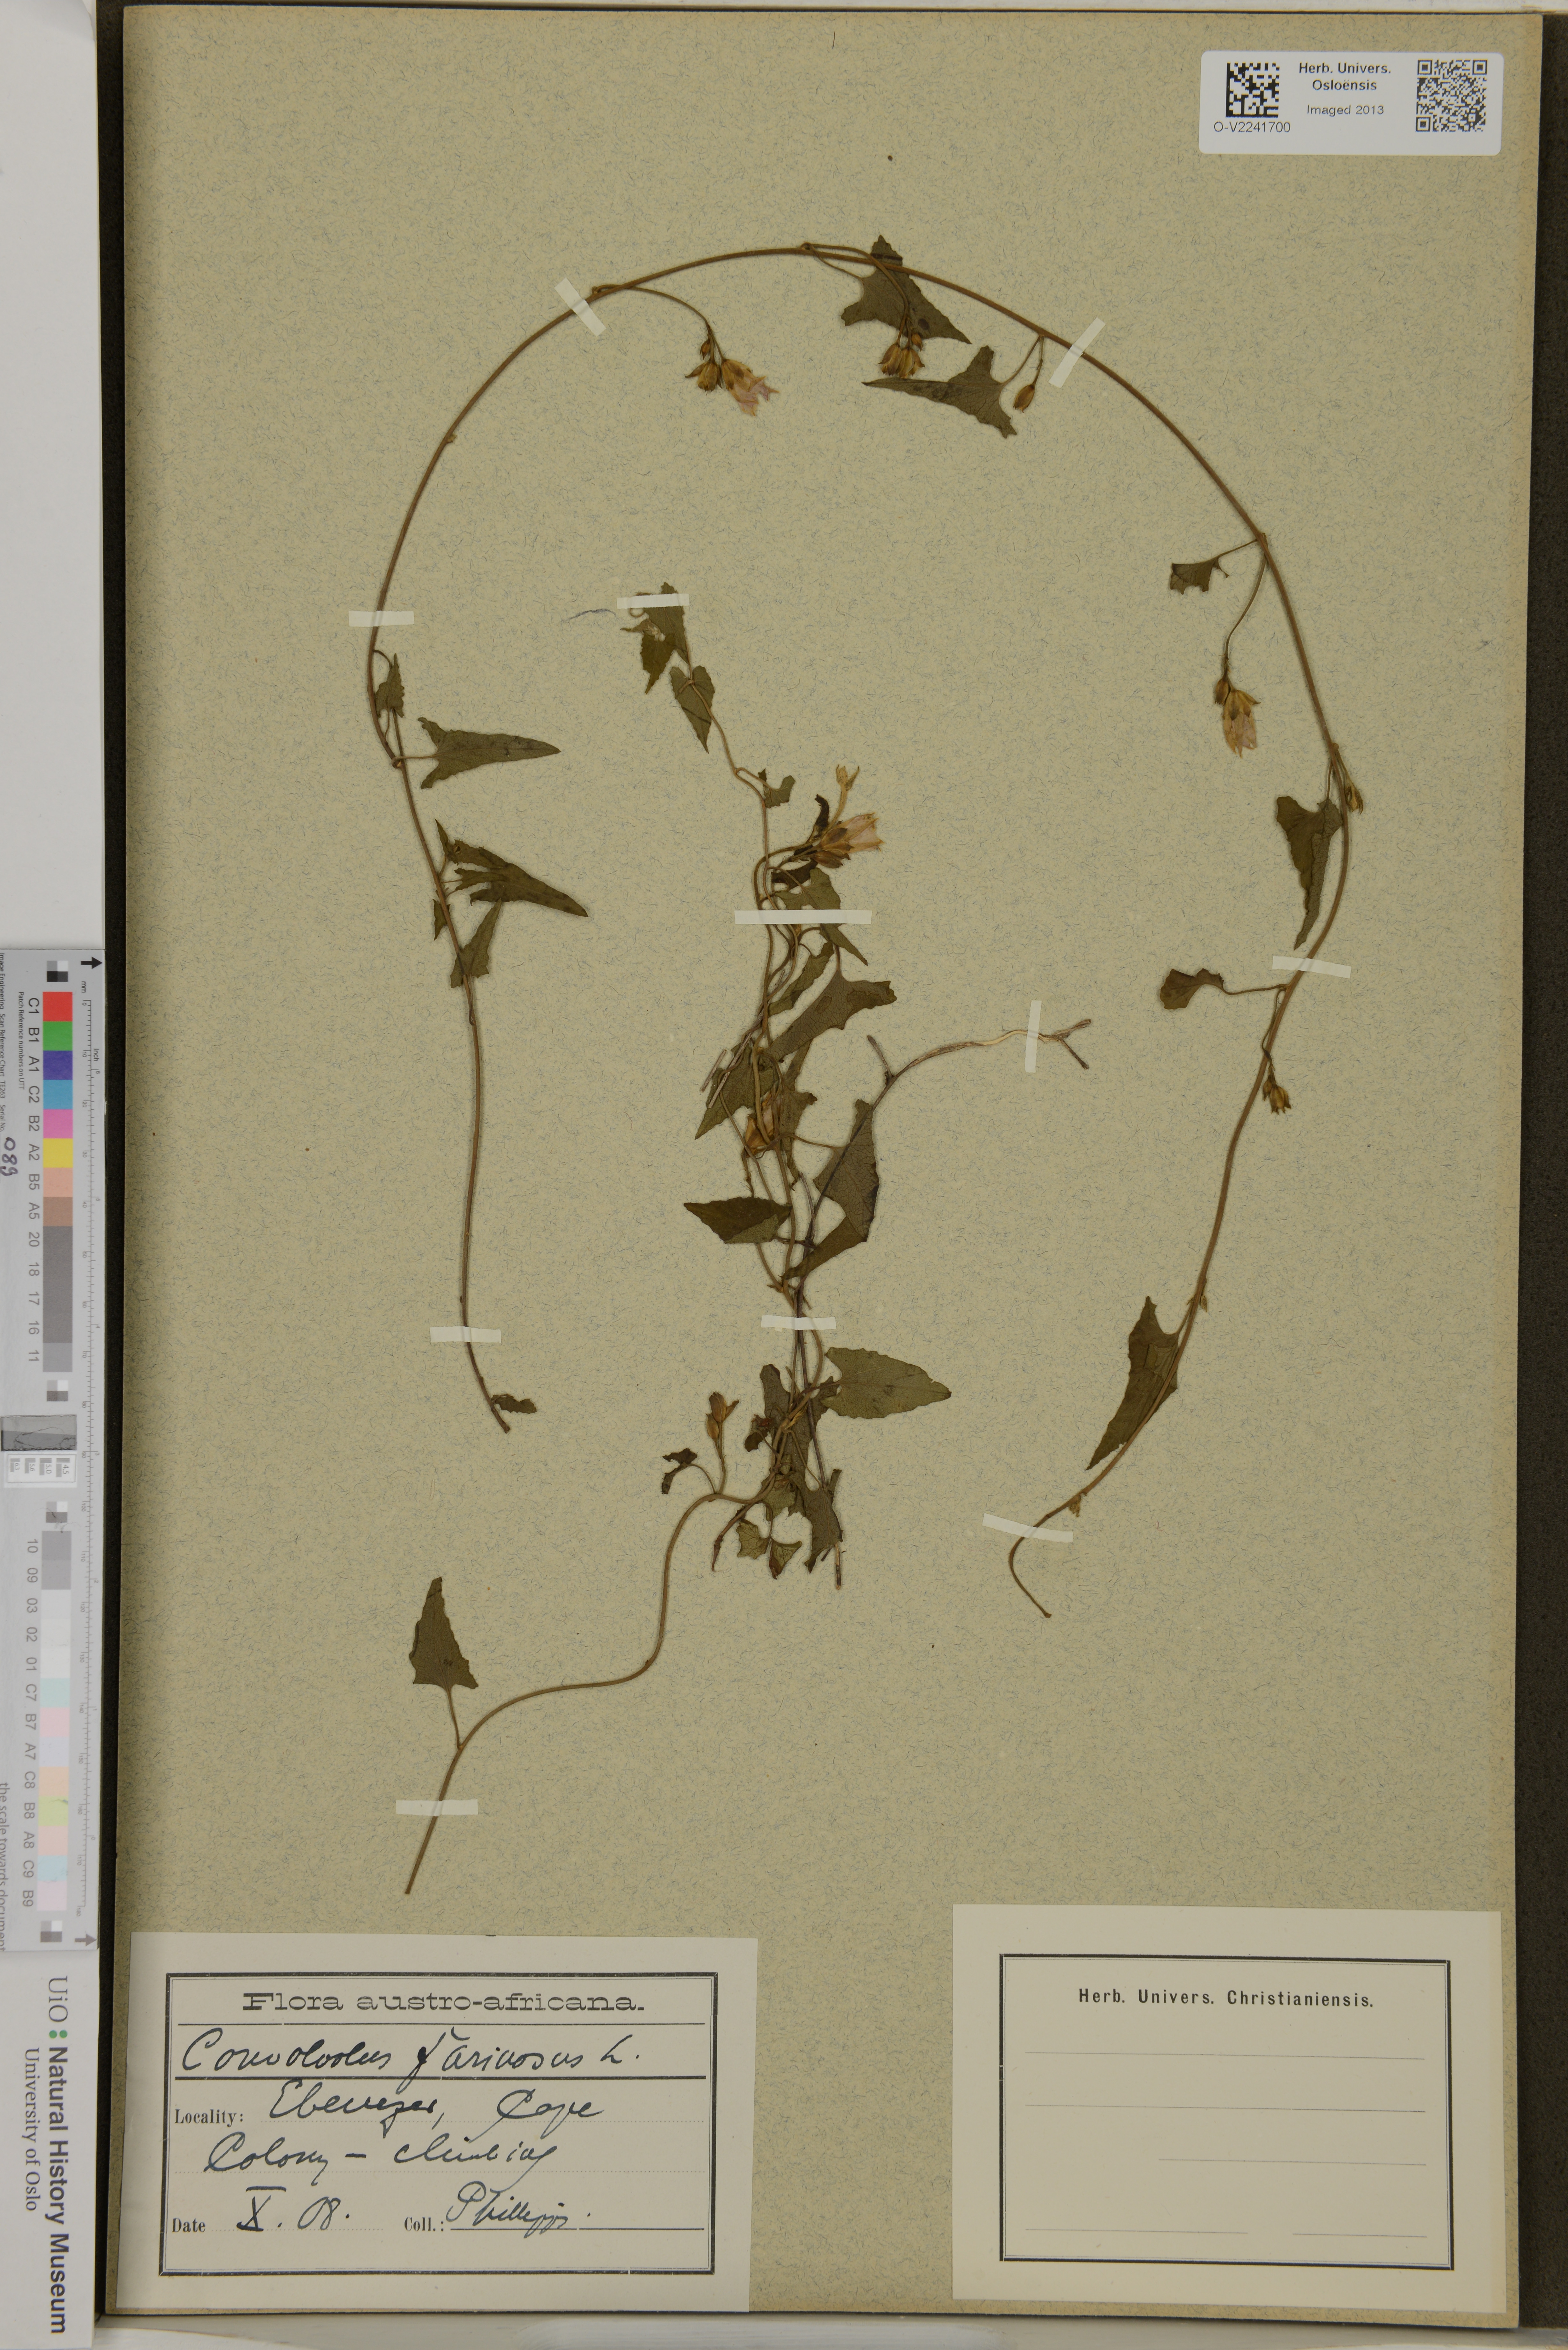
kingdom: Plantae
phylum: Tracheophyta
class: Magnoliopsida
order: Solanales
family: Convolvulaceae
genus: Convolvulus
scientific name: Convolvulus farinosus
